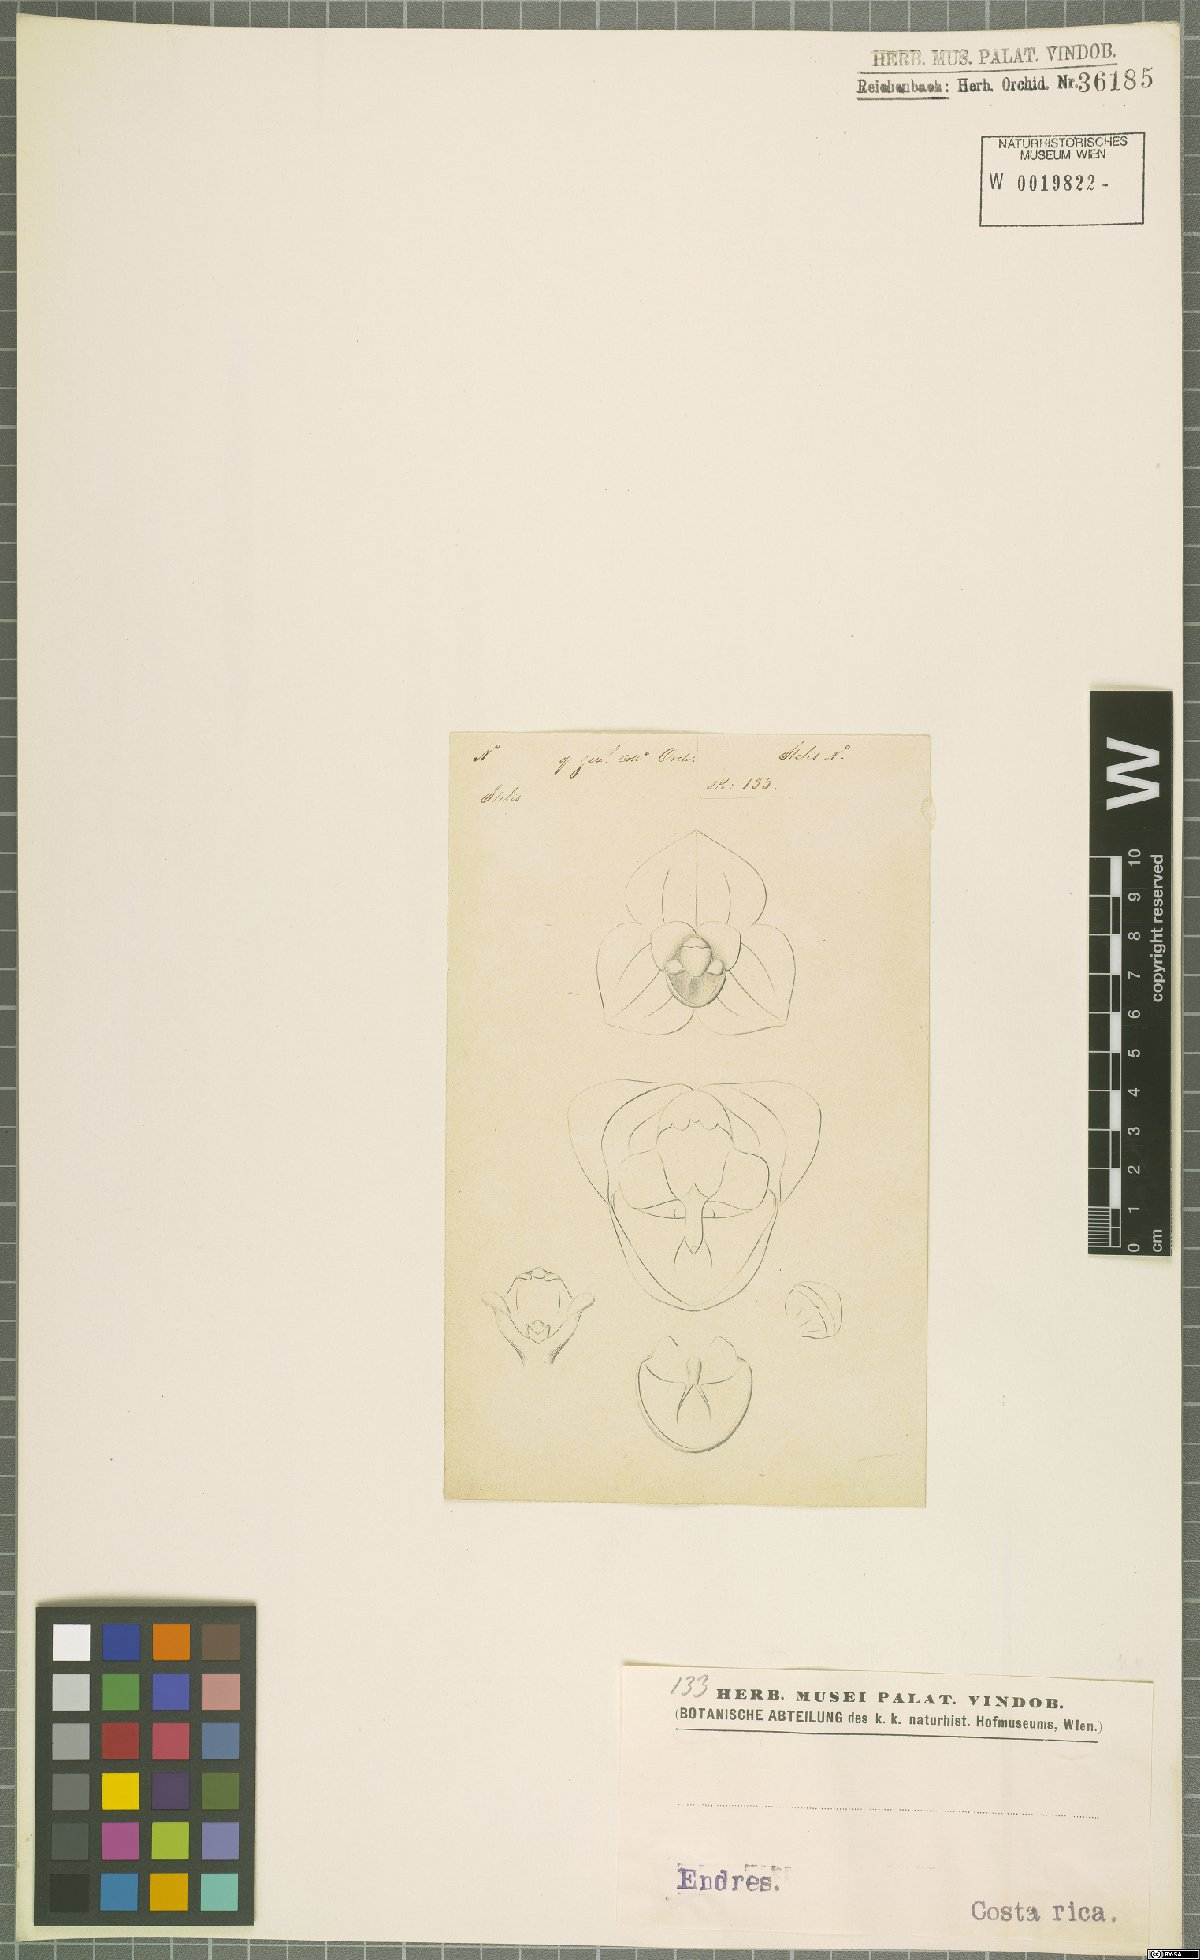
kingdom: Plantae
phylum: Tracheophyta
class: Liliopsida
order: Asparagales
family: Orchidaceae
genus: Stelis
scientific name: Stelis
